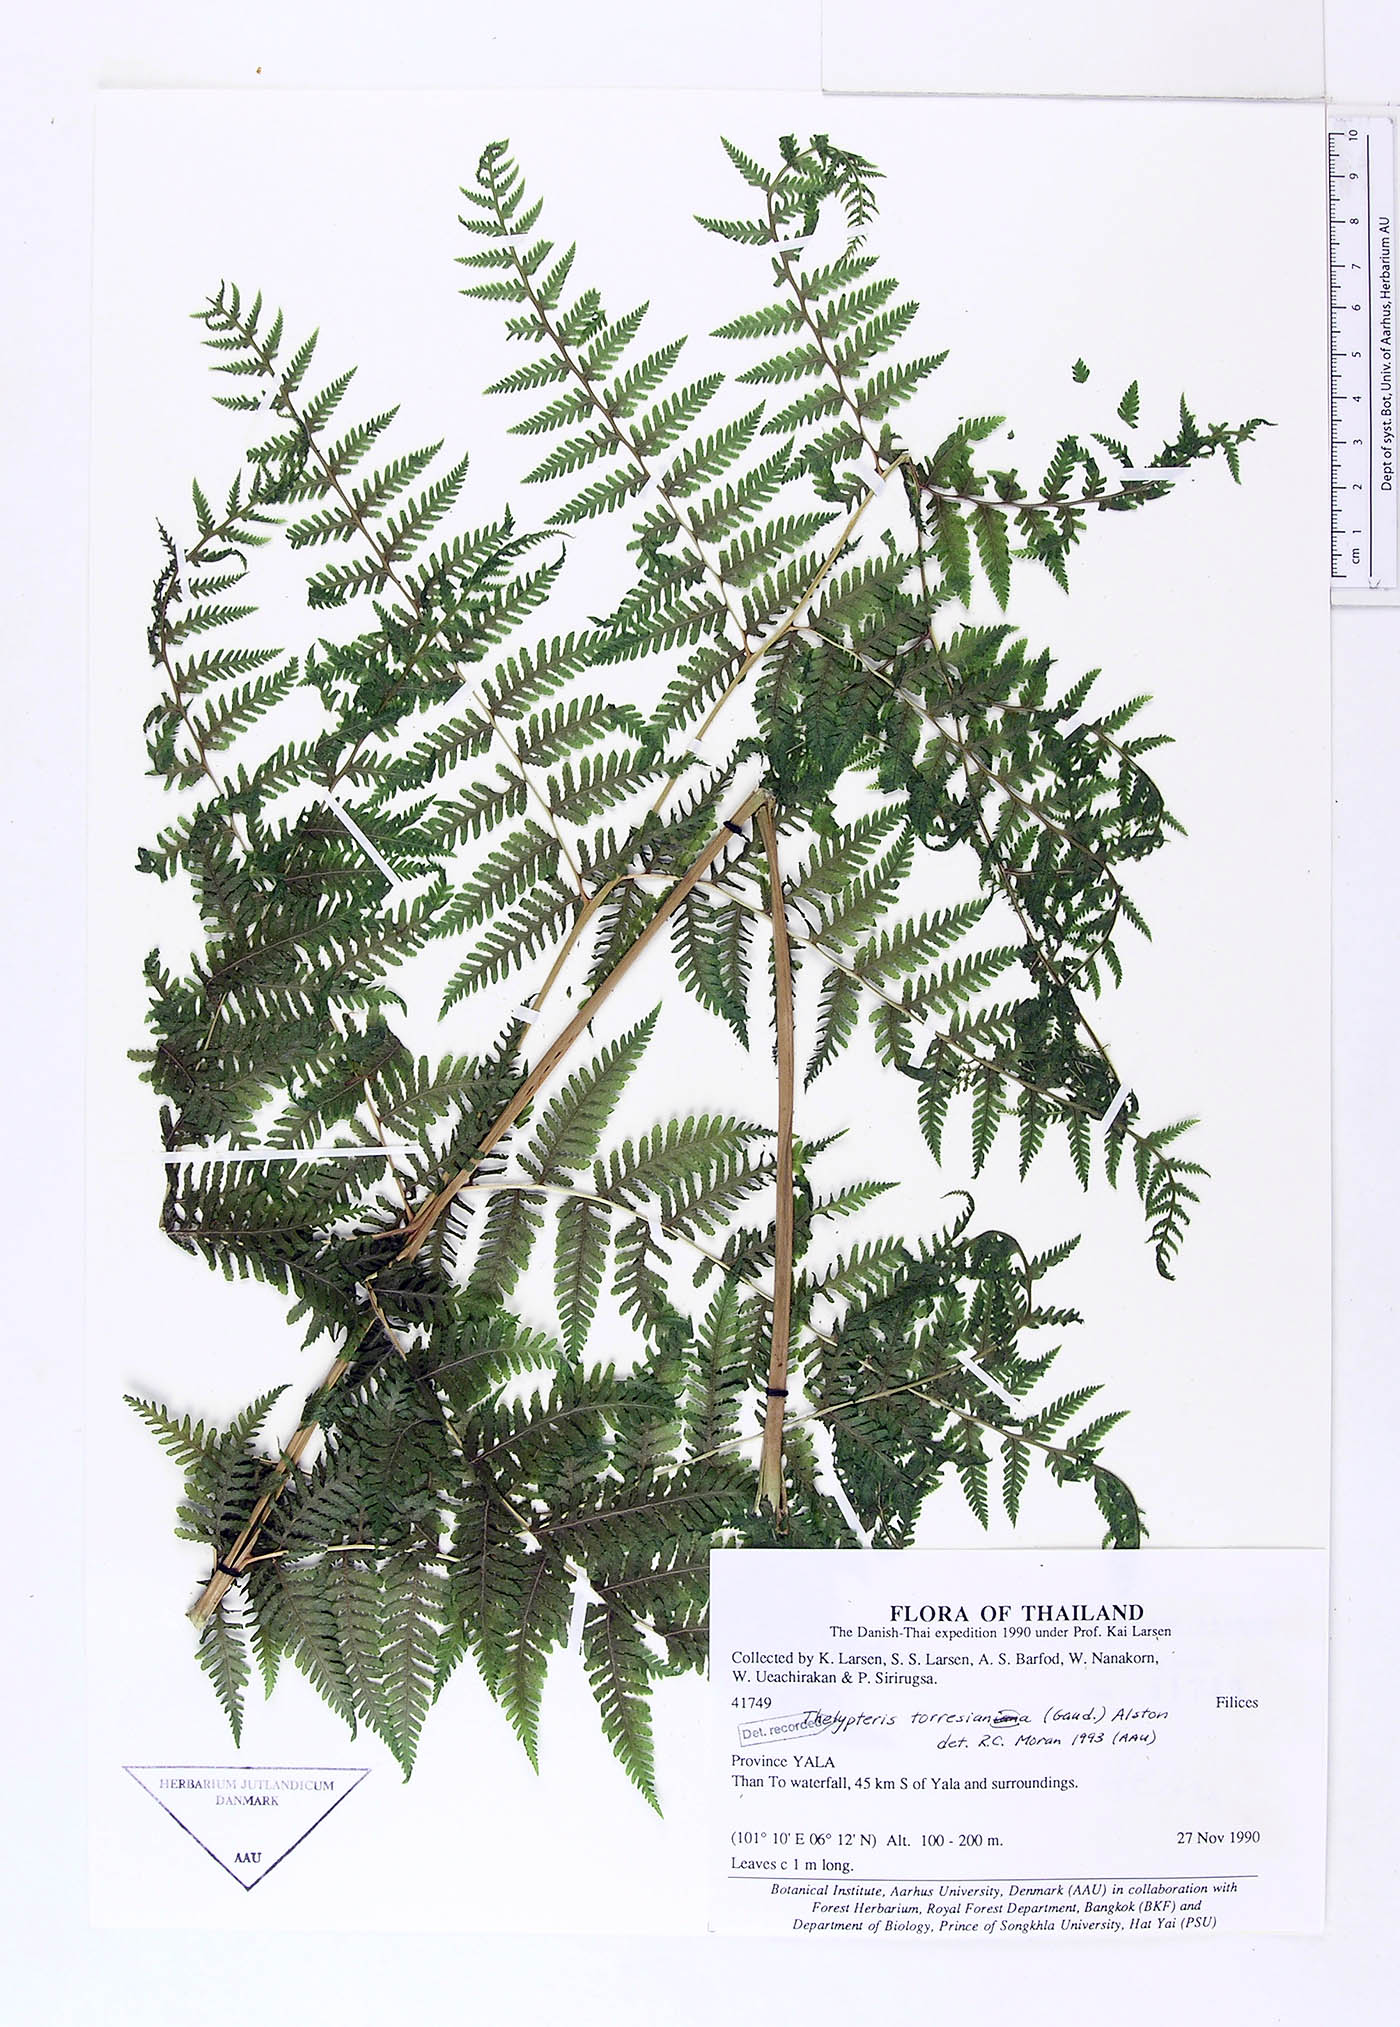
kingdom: Plantae
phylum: Tracheophyta
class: Polypodiopsida
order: Polypodiales
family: Thelypteridaceae
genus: Macrothelypteris
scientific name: Macrothelypteris torresiana
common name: Swordfern
